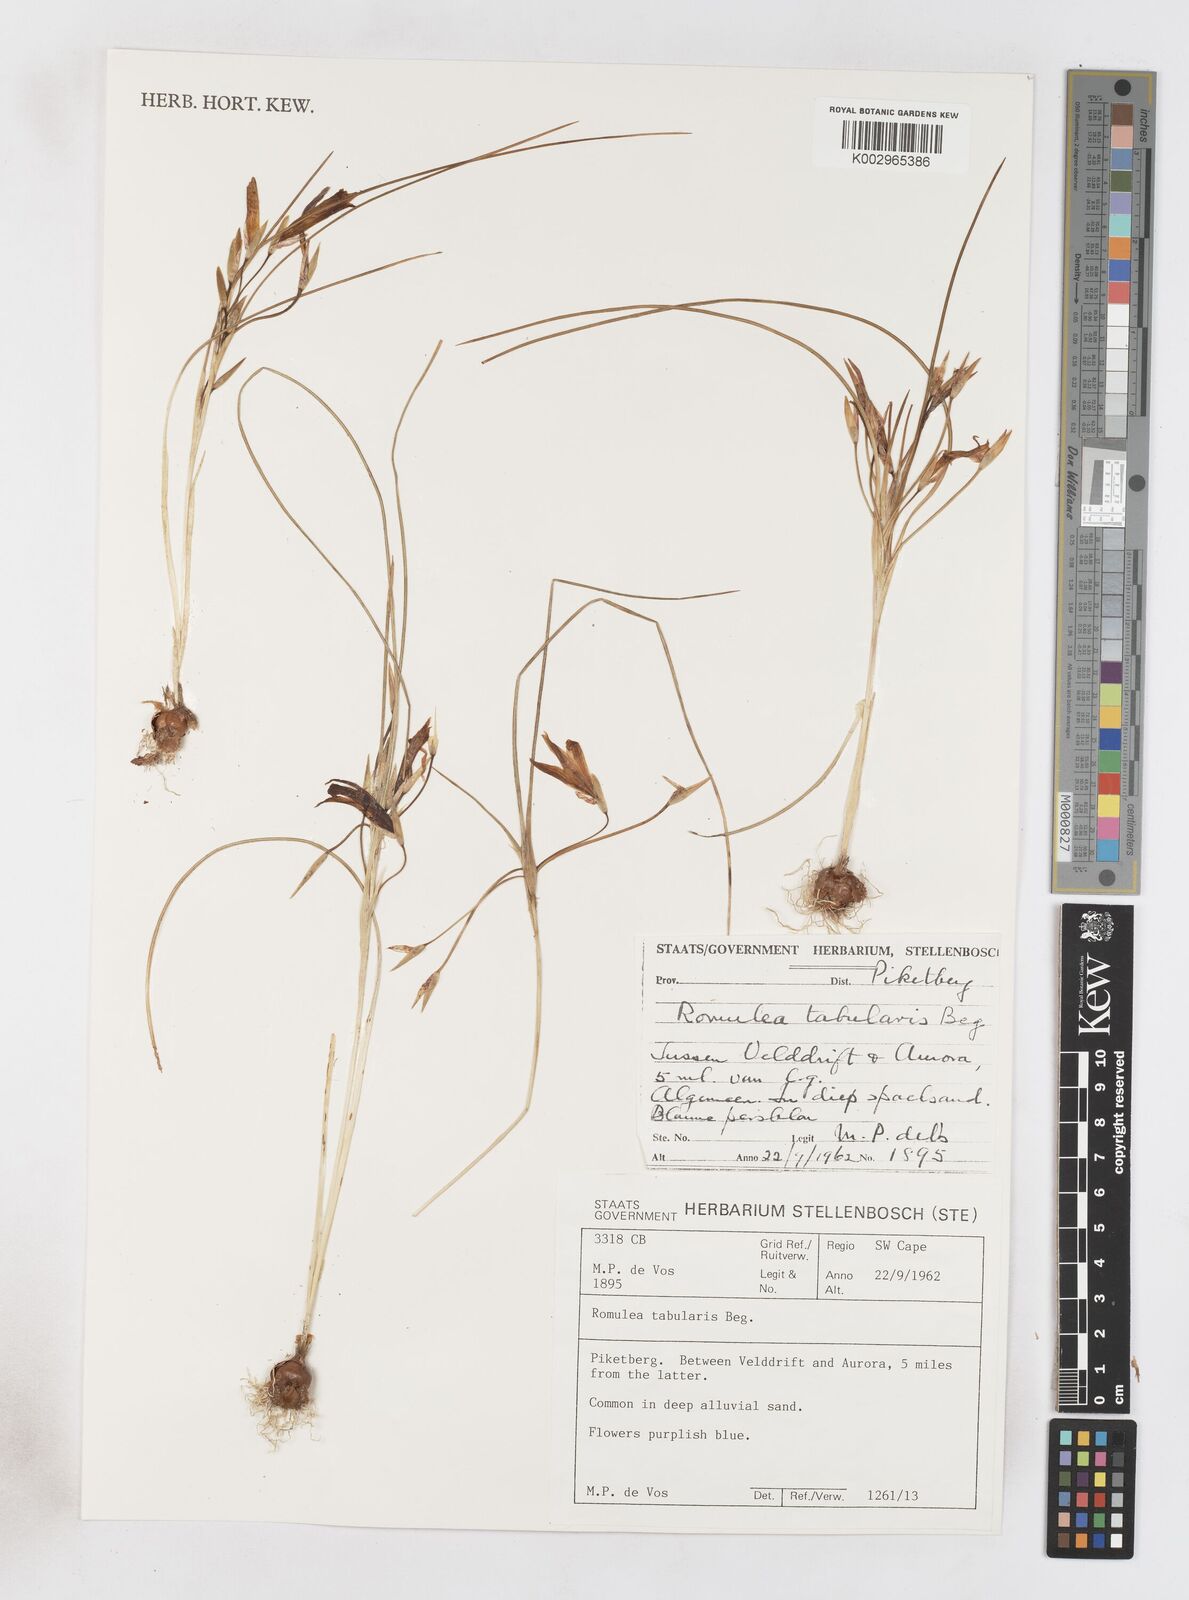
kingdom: Plantae
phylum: Tracheophyta
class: Liliopsida
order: Asparagales
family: Iridaceae
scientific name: Iridaceae
